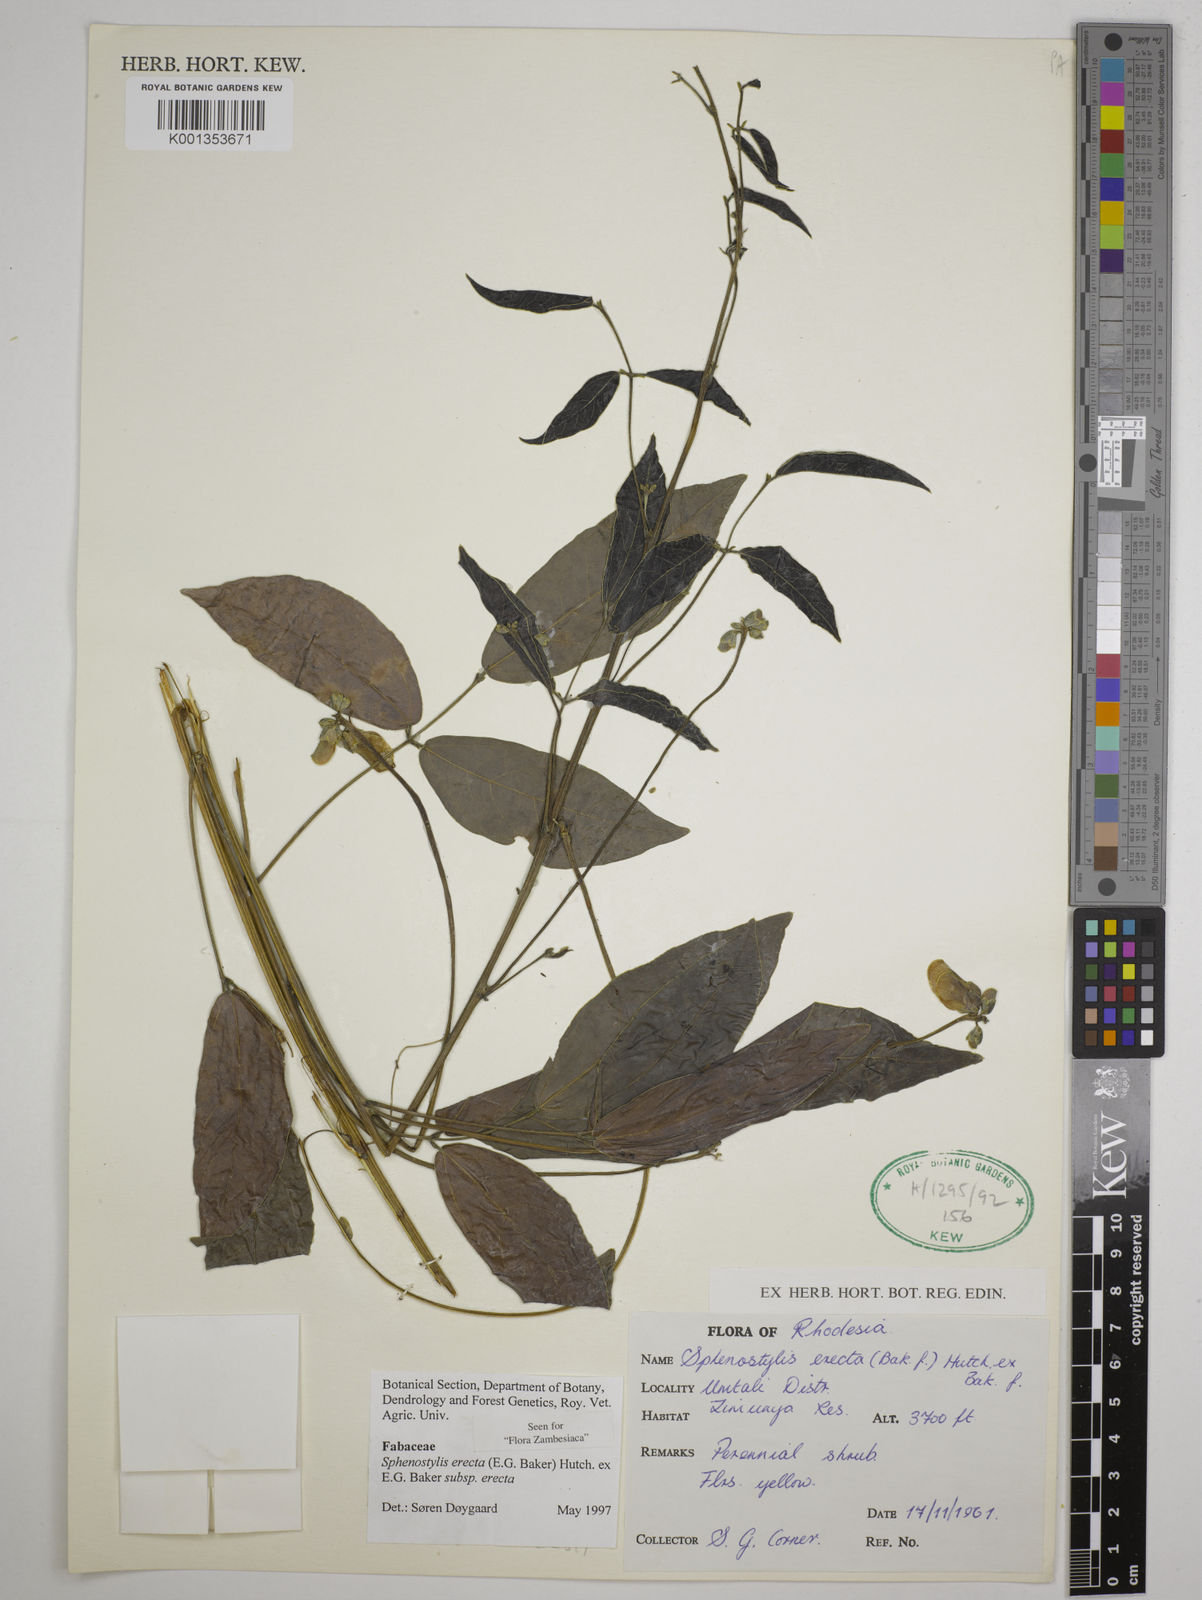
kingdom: Plantae
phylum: Tracheophyta
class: Magnoliopsida
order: Fabales
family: Fabaceae
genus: Sphenostylis
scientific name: Sphenostylis erecta
